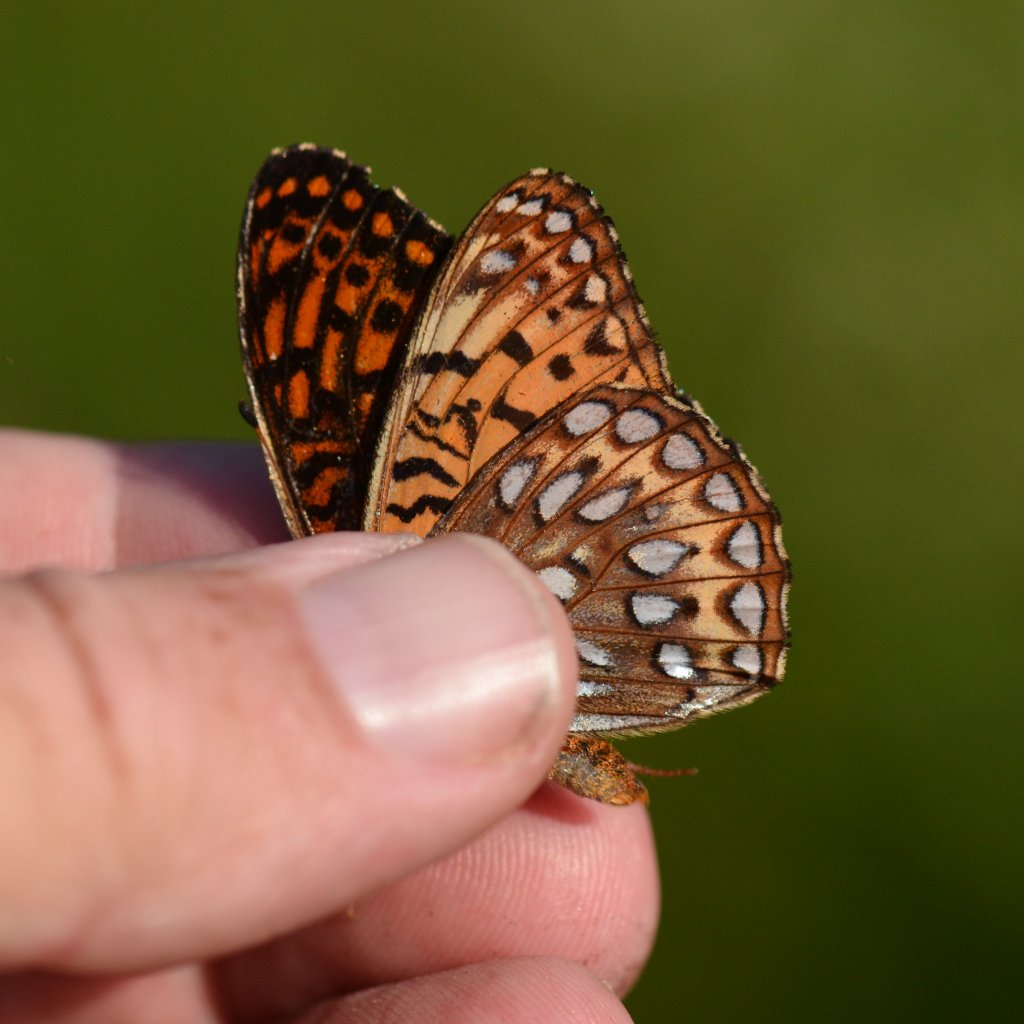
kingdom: Animalia
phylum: Arthropoda
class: Insecta
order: Lepidoptera
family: Nymphalidae
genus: Speyeria
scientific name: Speyeria atlantis
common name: Atlantis Fritillary
